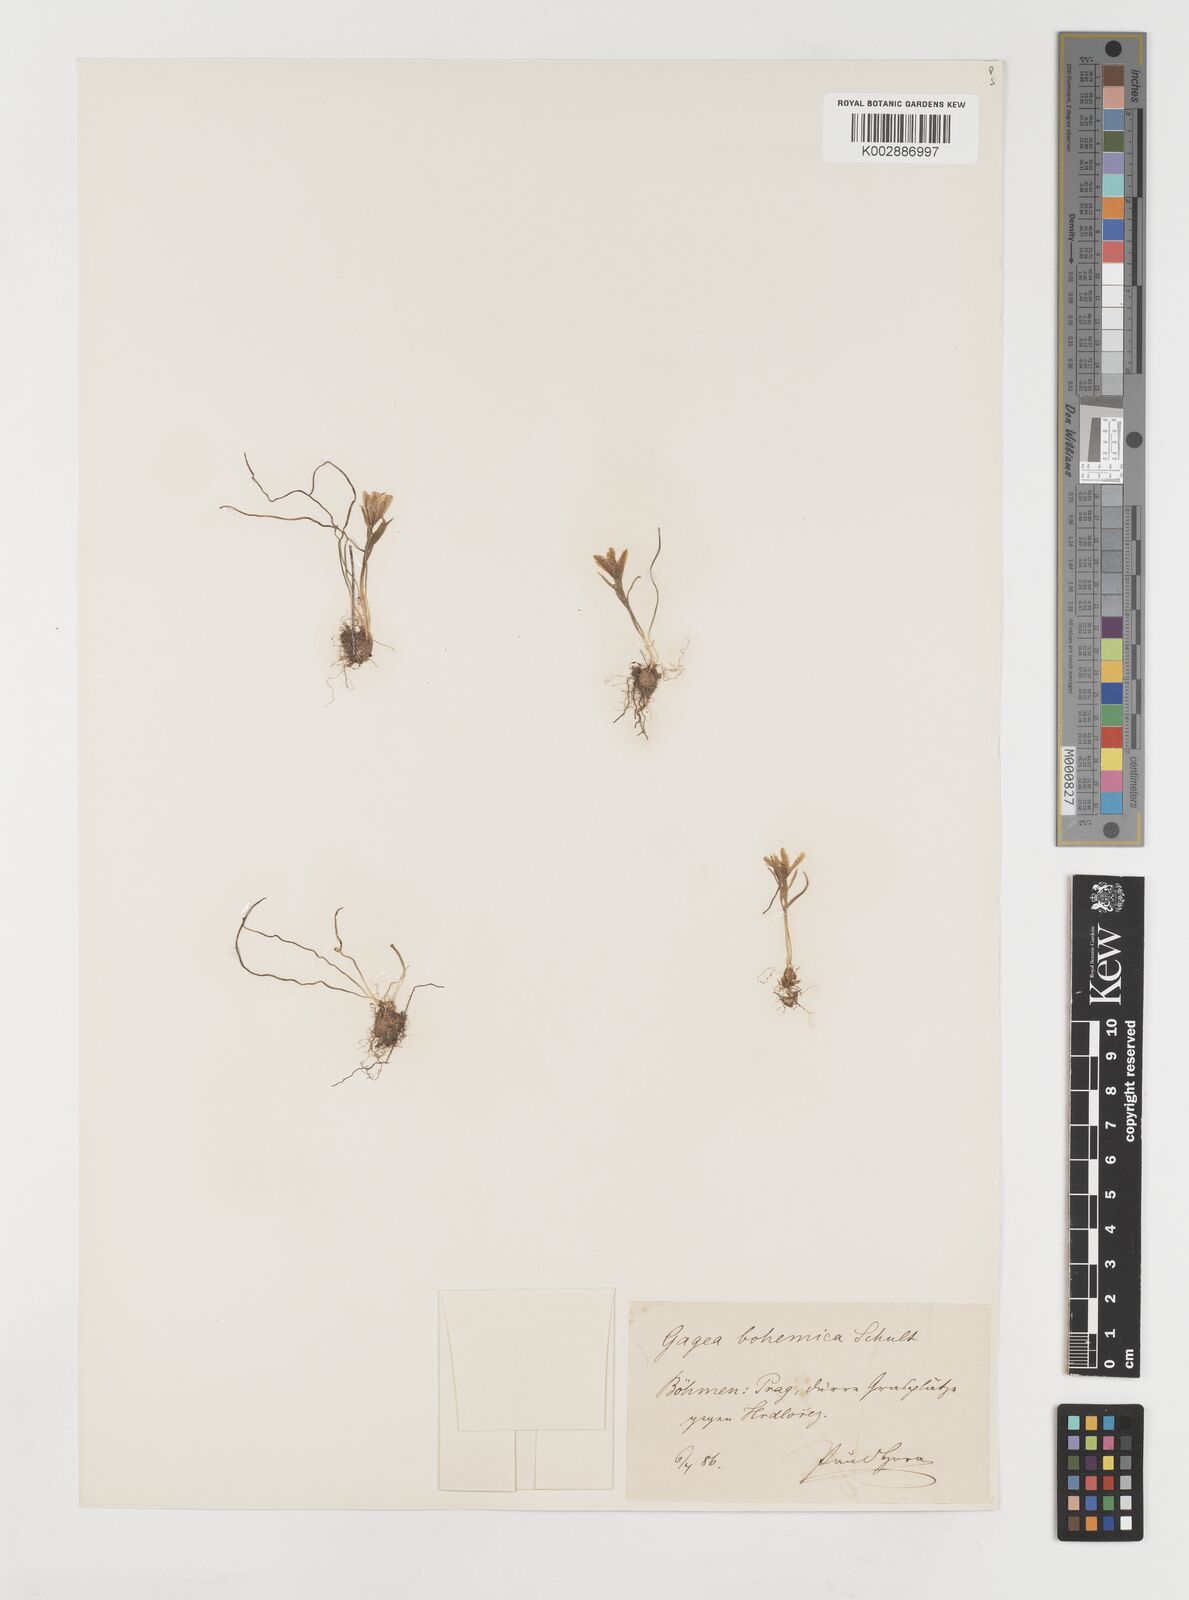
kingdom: Plantae
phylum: Tracheophyta
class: Liliopsida
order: Liliales
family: Liliaceae
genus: Gagea
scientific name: Gagea bohemica
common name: Early star-of-bethlehem
